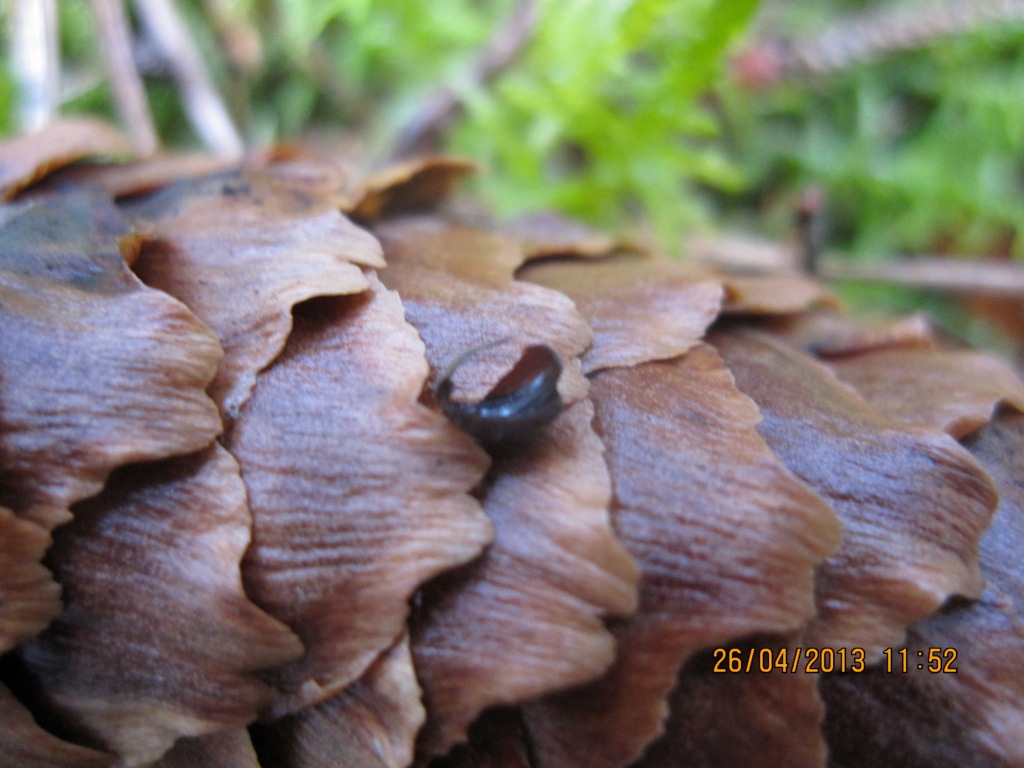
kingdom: Fungi
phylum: Ascomycota
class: Leotiomycetes
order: Helotiales
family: Rutstroemiaceae
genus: Rutstroemia
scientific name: Rutstroemia bulgarioides
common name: kogleskive
